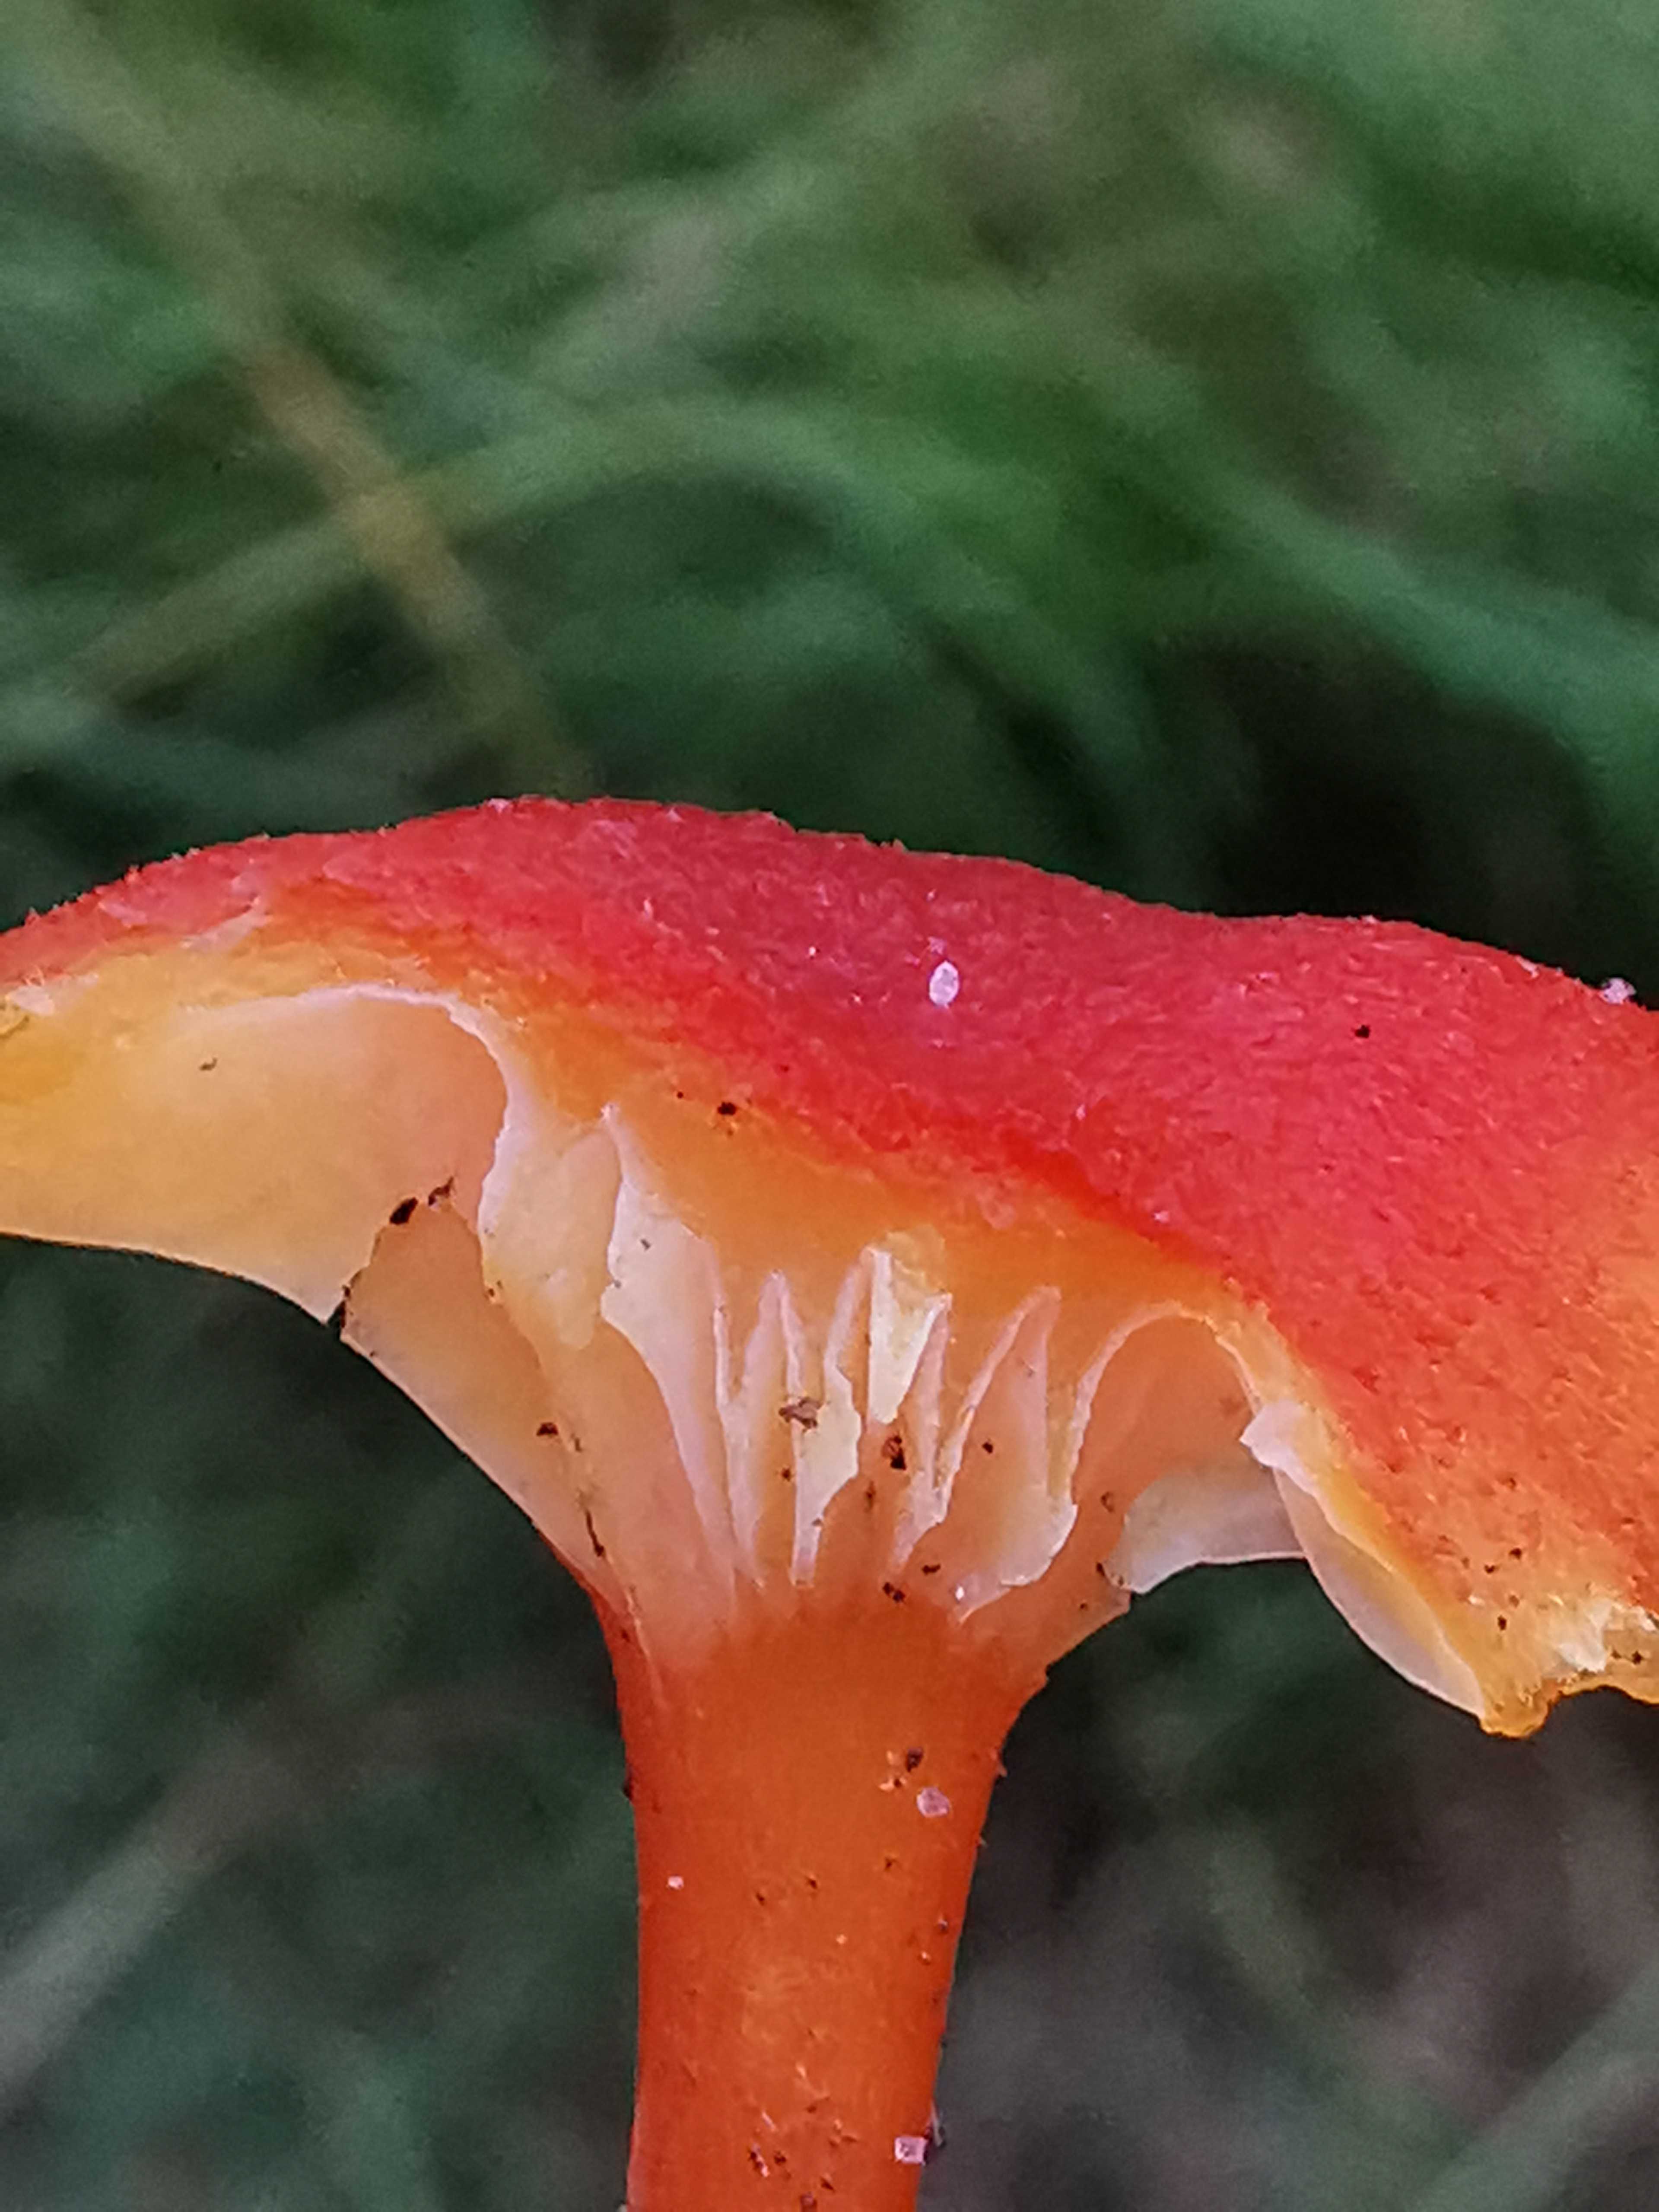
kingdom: Fungi
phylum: Basidiomycota
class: Agaricomycetes
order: Agaricales
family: Hygrophoraceae
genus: Hygrocybe
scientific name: Hygrocybe cantharellus
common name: kantarel-vokshat
